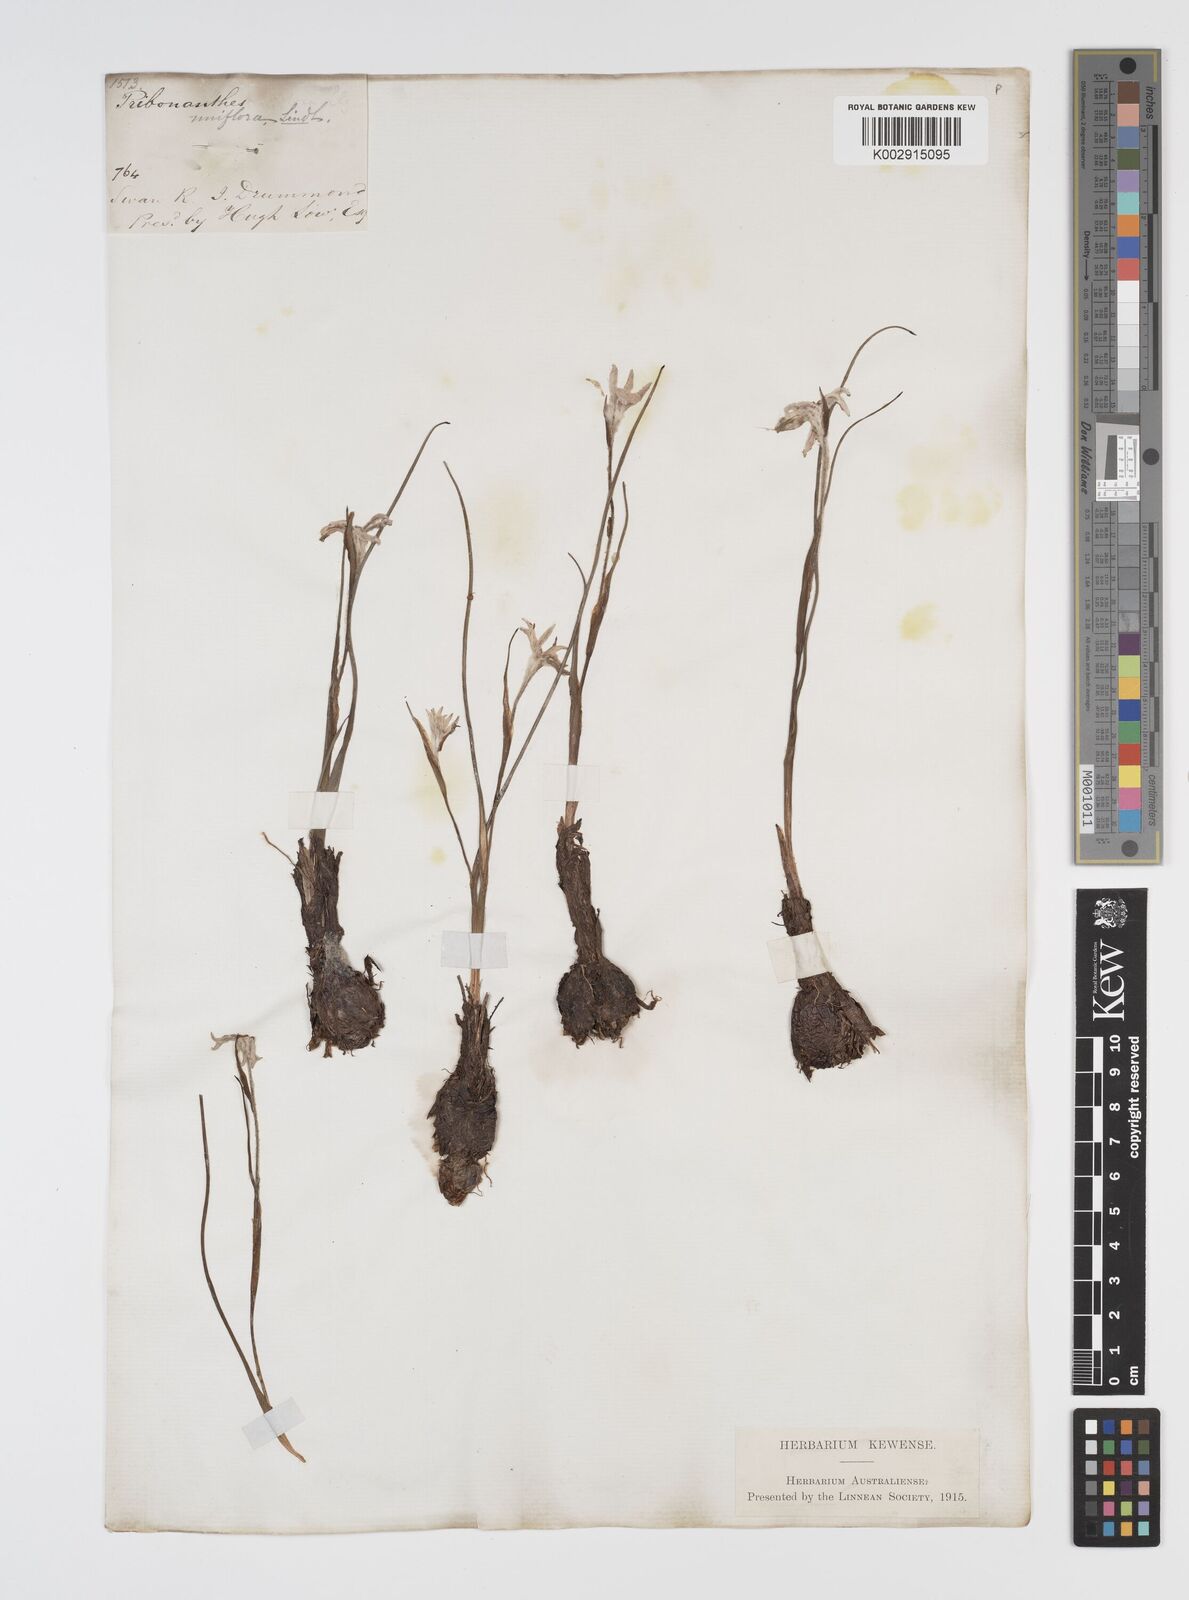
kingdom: Plantae
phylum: Tracheophyta
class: Liliopsida
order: Commelinales
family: Haemodoraceae
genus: Tribonanthes
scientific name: Tribonanthes uniflora
